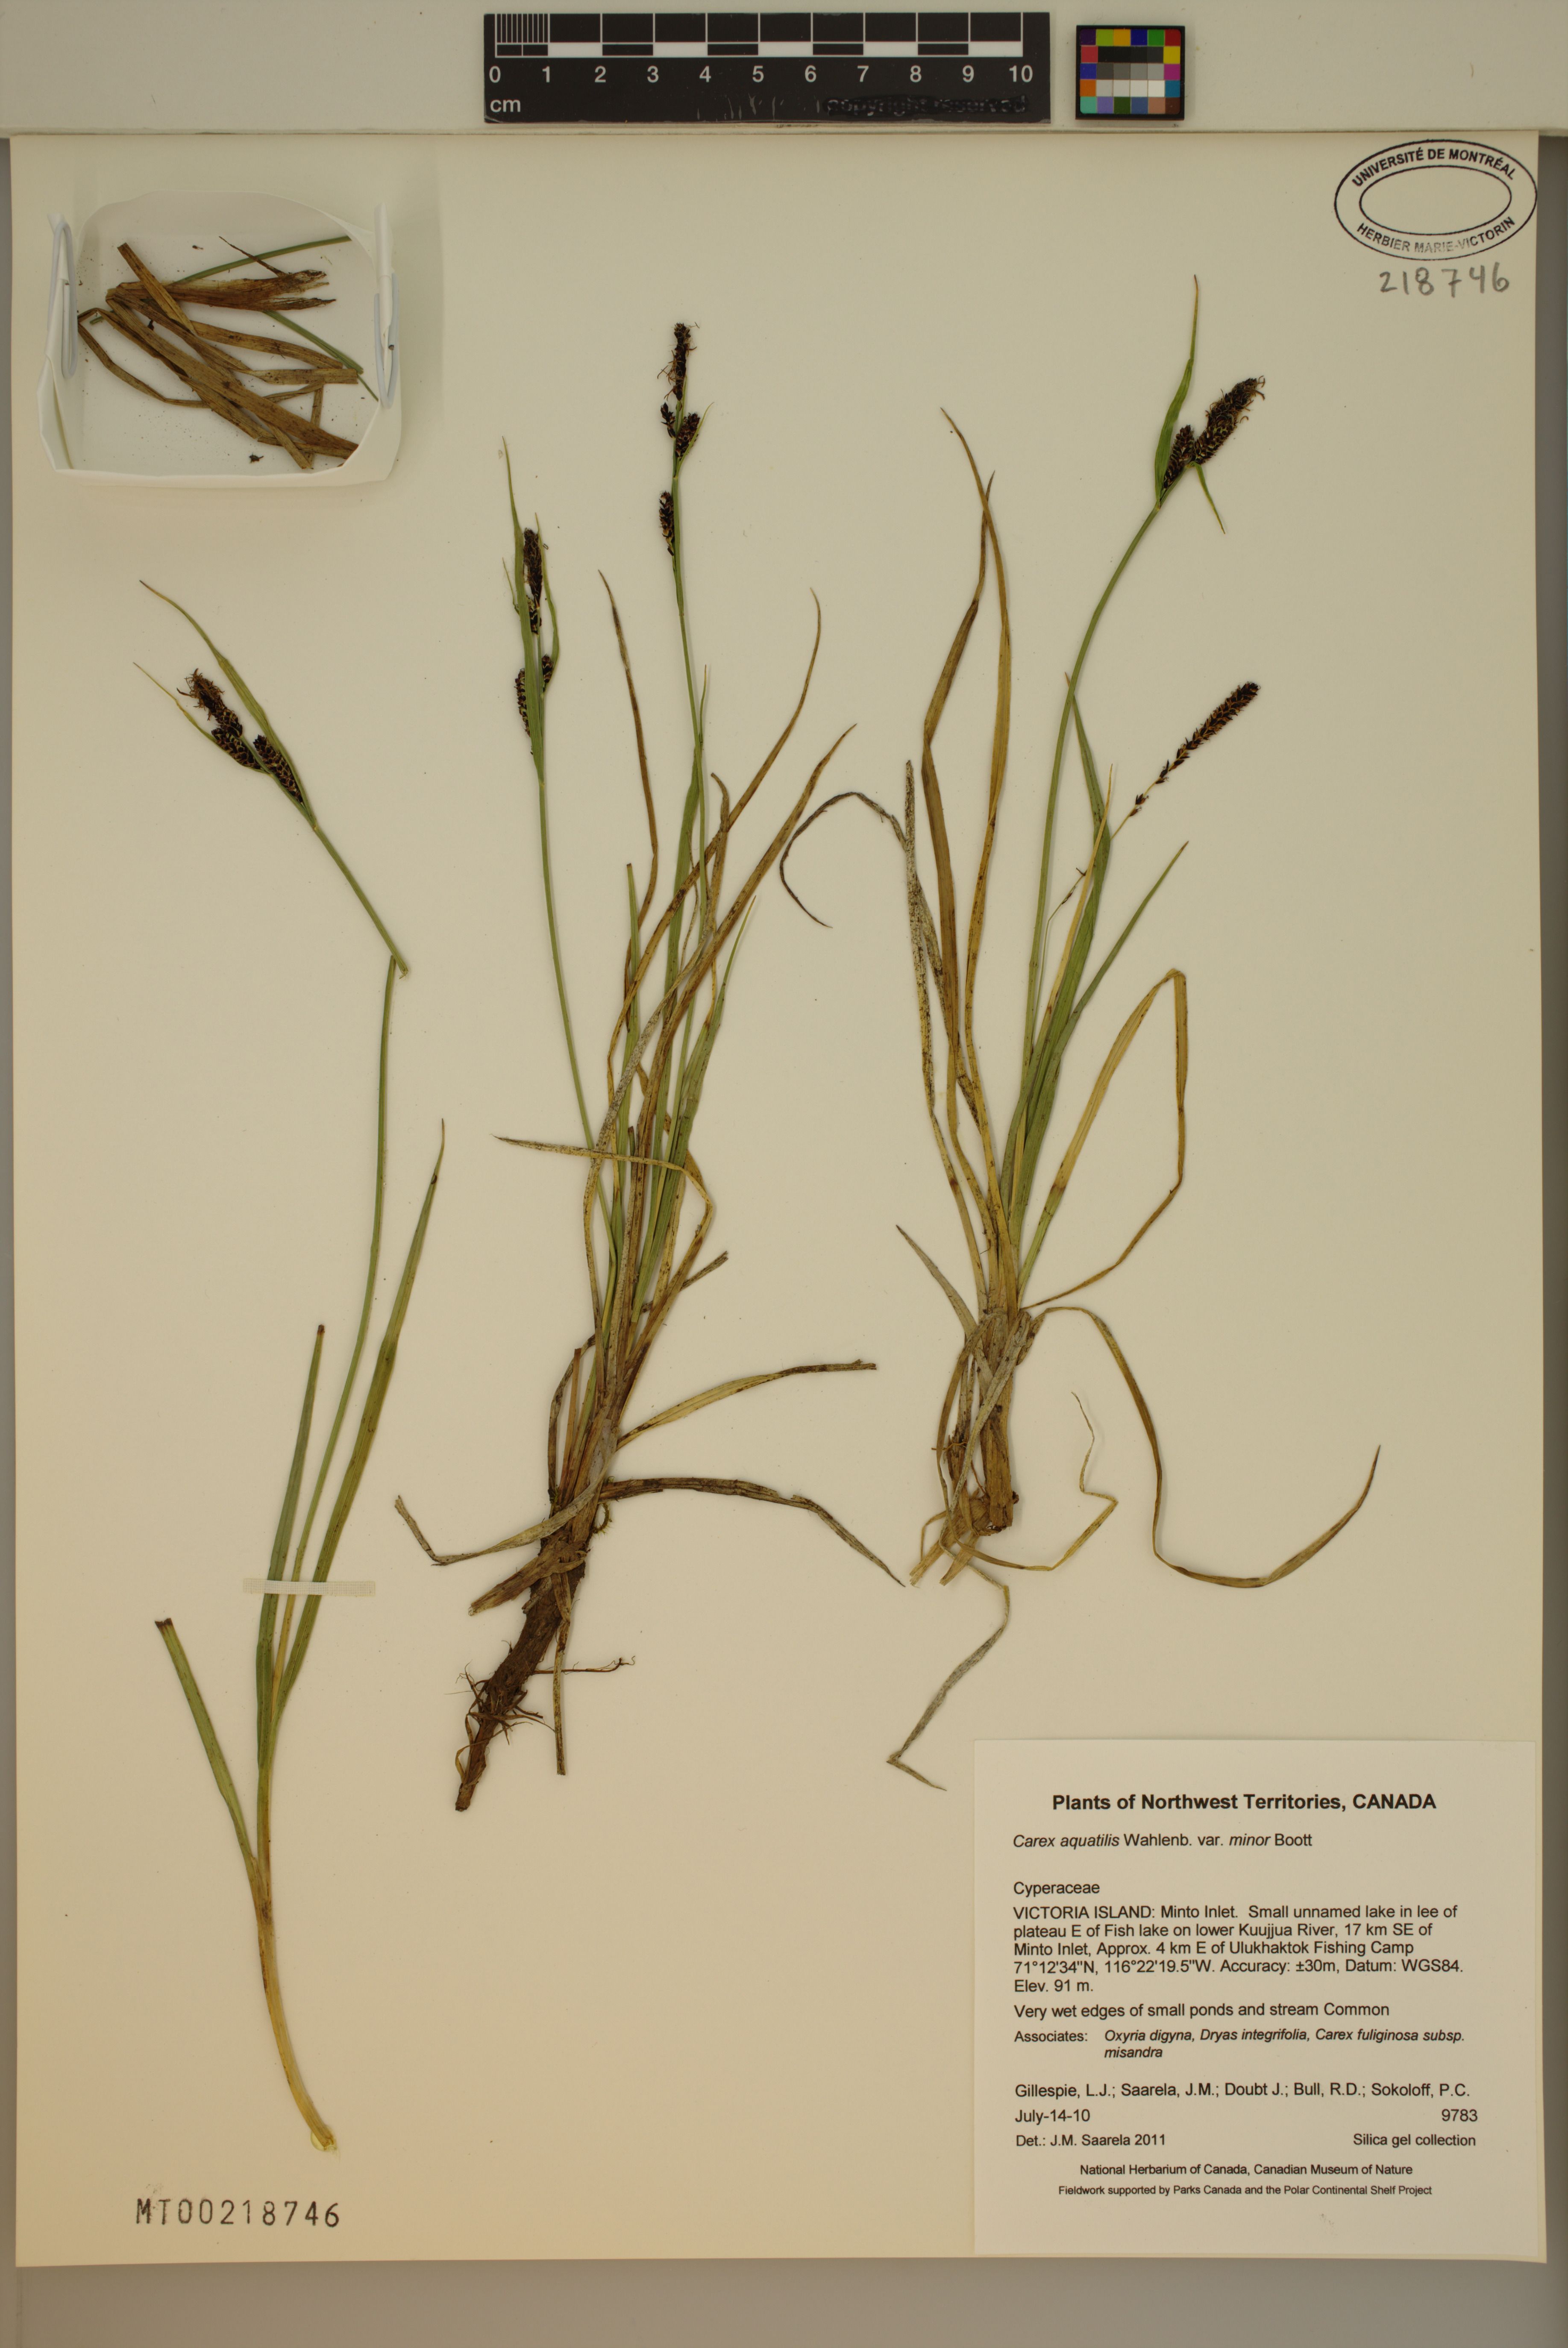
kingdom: Plantae
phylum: Tracheophyta
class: Liliopsida
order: Poales
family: Cyperaceae
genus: Carex
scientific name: Carex aquatilis
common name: Water sedge
